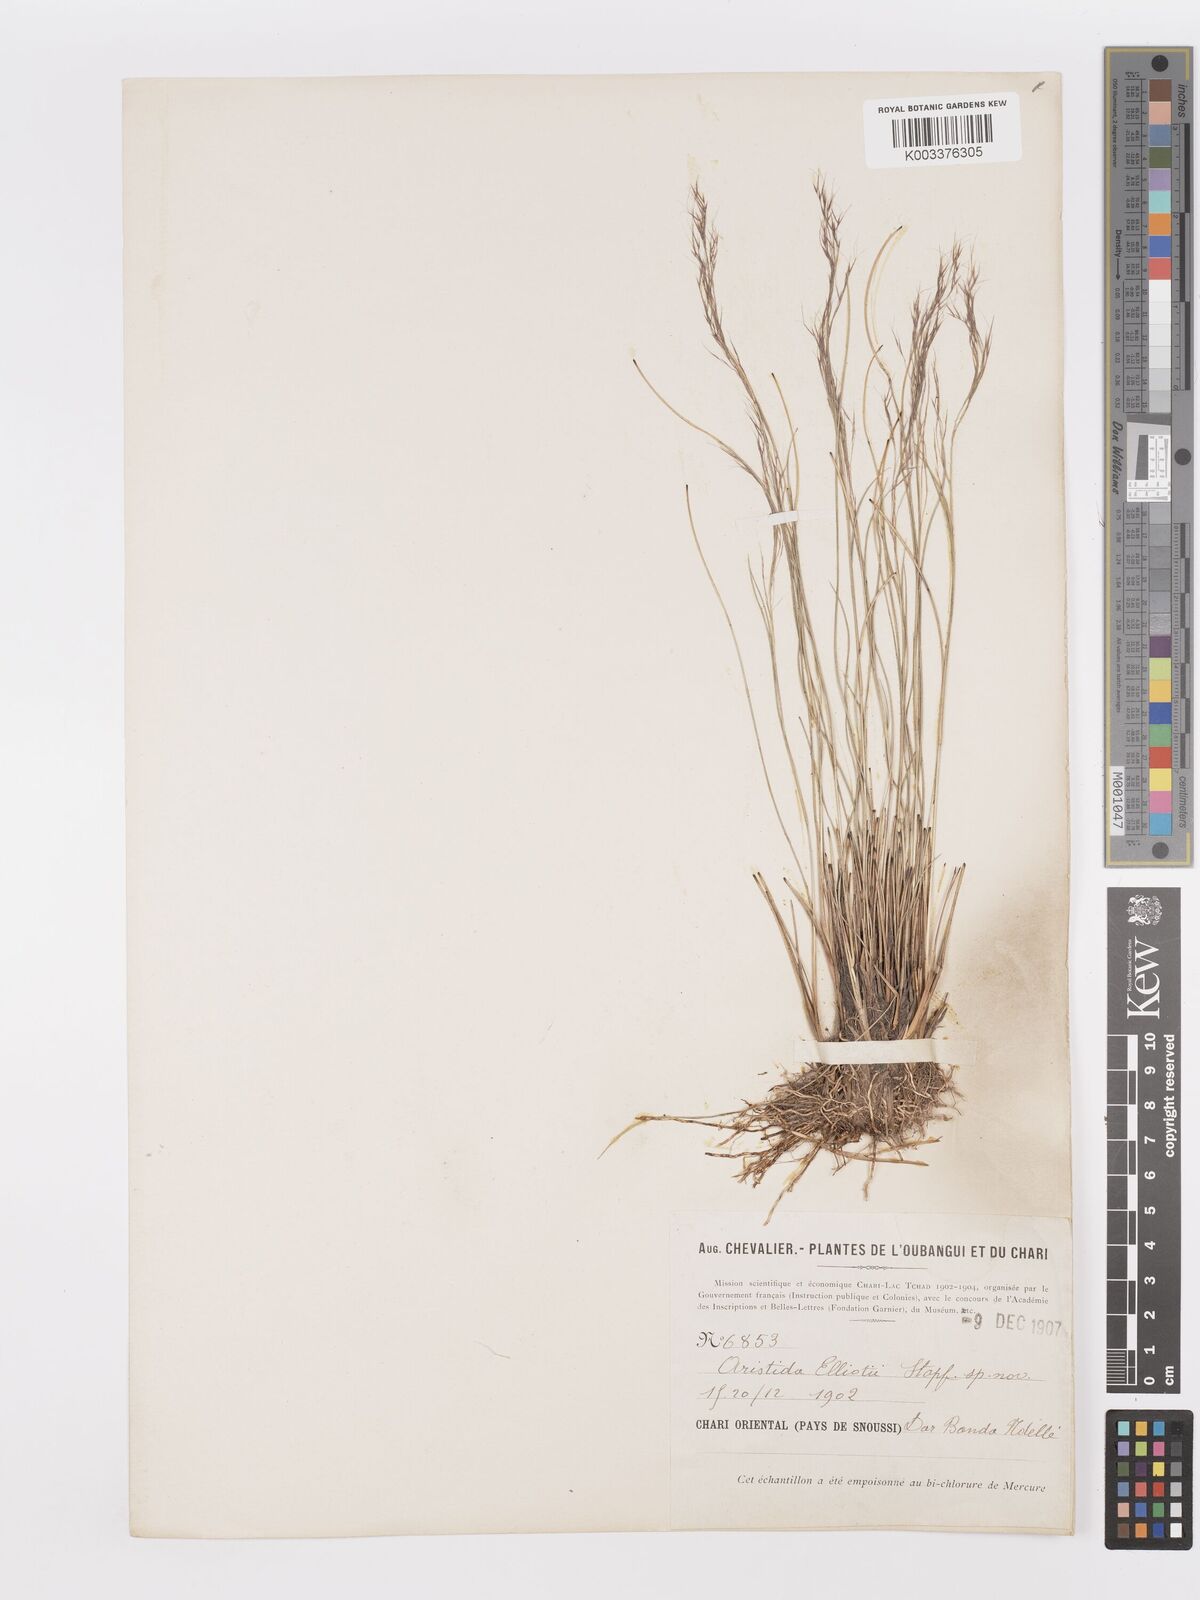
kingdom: Plantae
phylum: Tracheophyta
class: Liliopsida
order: Poales
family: Poaceae
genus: Aristida
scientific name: Aristida recta
